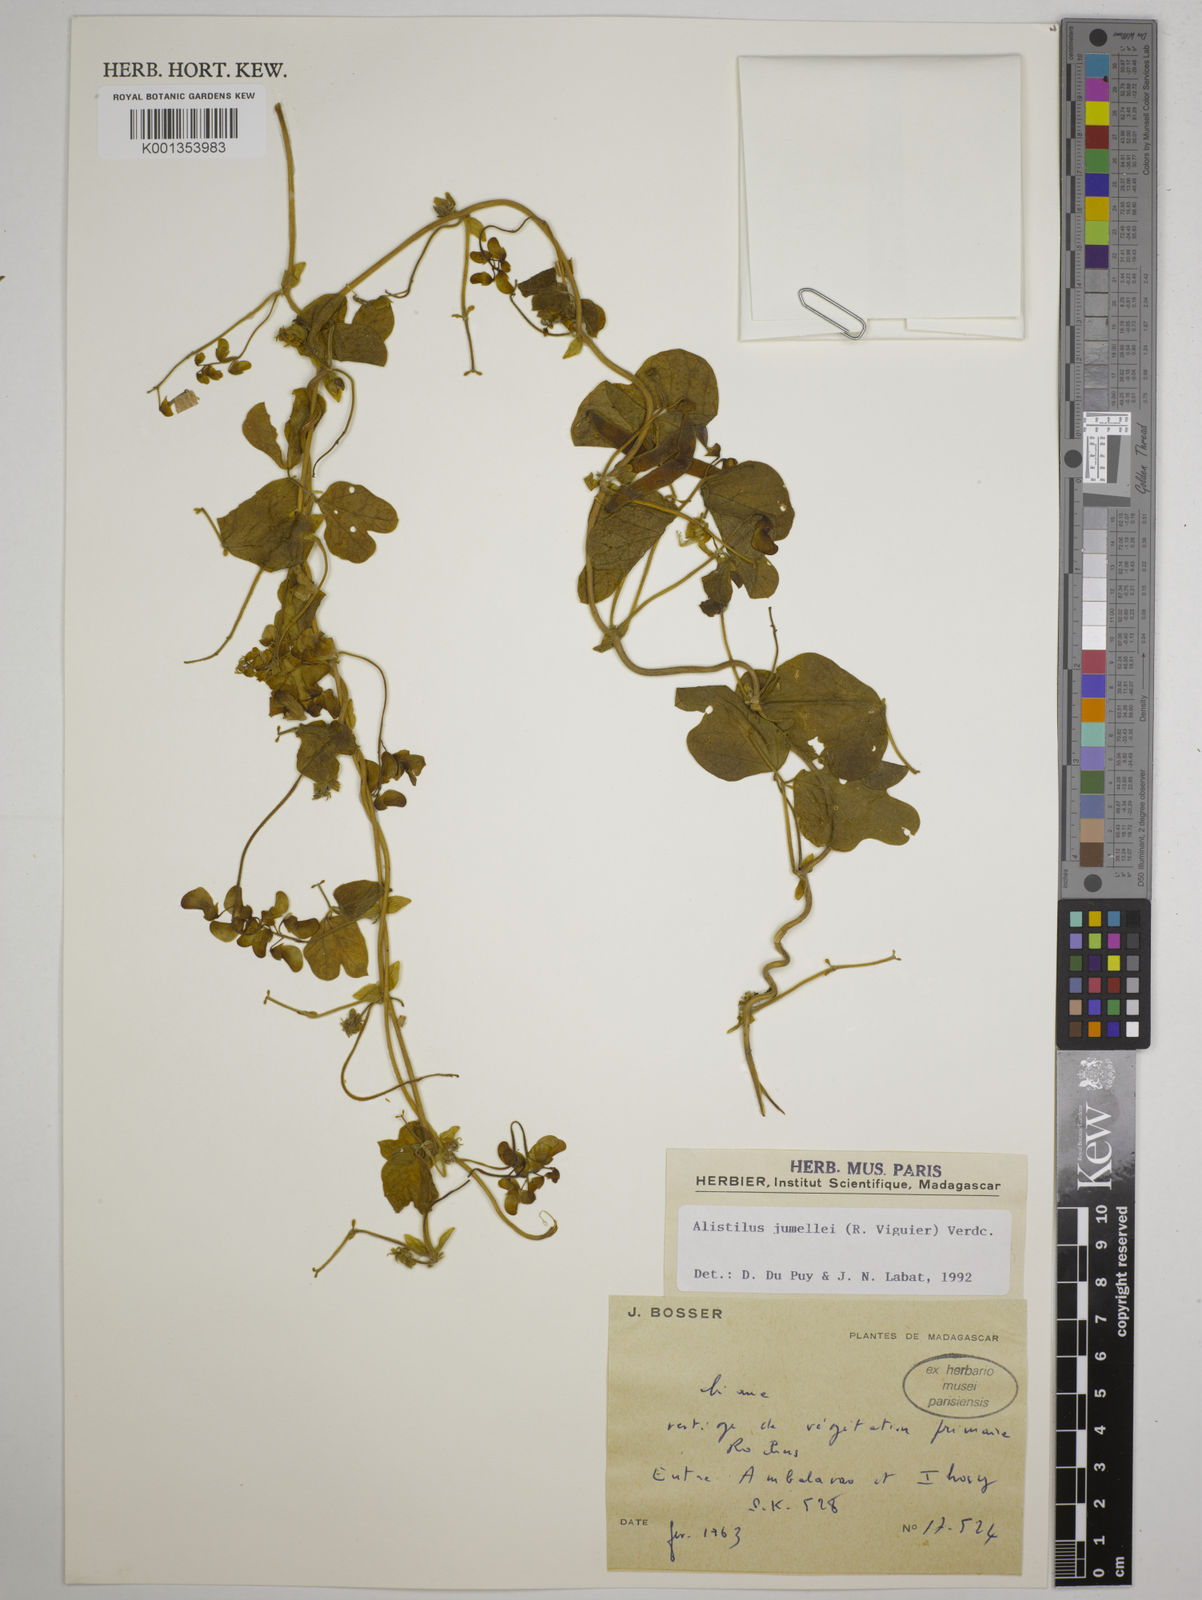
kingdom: Plantae
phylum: Tracheophyta
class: Magnoliopsida
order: Fabales
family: Fabaceae
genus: Alistilus
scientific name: Alistilus jumellei
